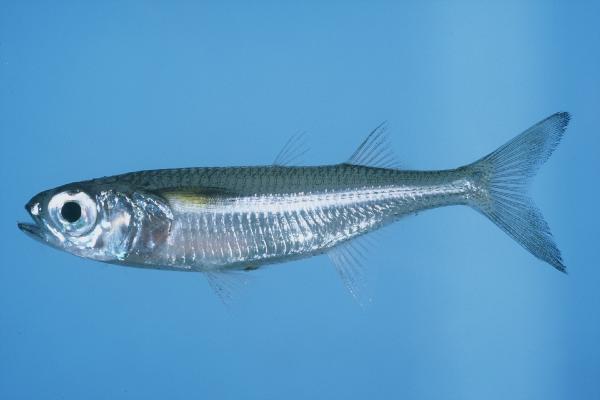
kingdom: Animalia
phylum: Chordata
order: Atheriniformes
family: Atherinidae
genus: Atherinomorus
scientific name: Atherinomorus lacunosus
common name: Hardyhead silverside
